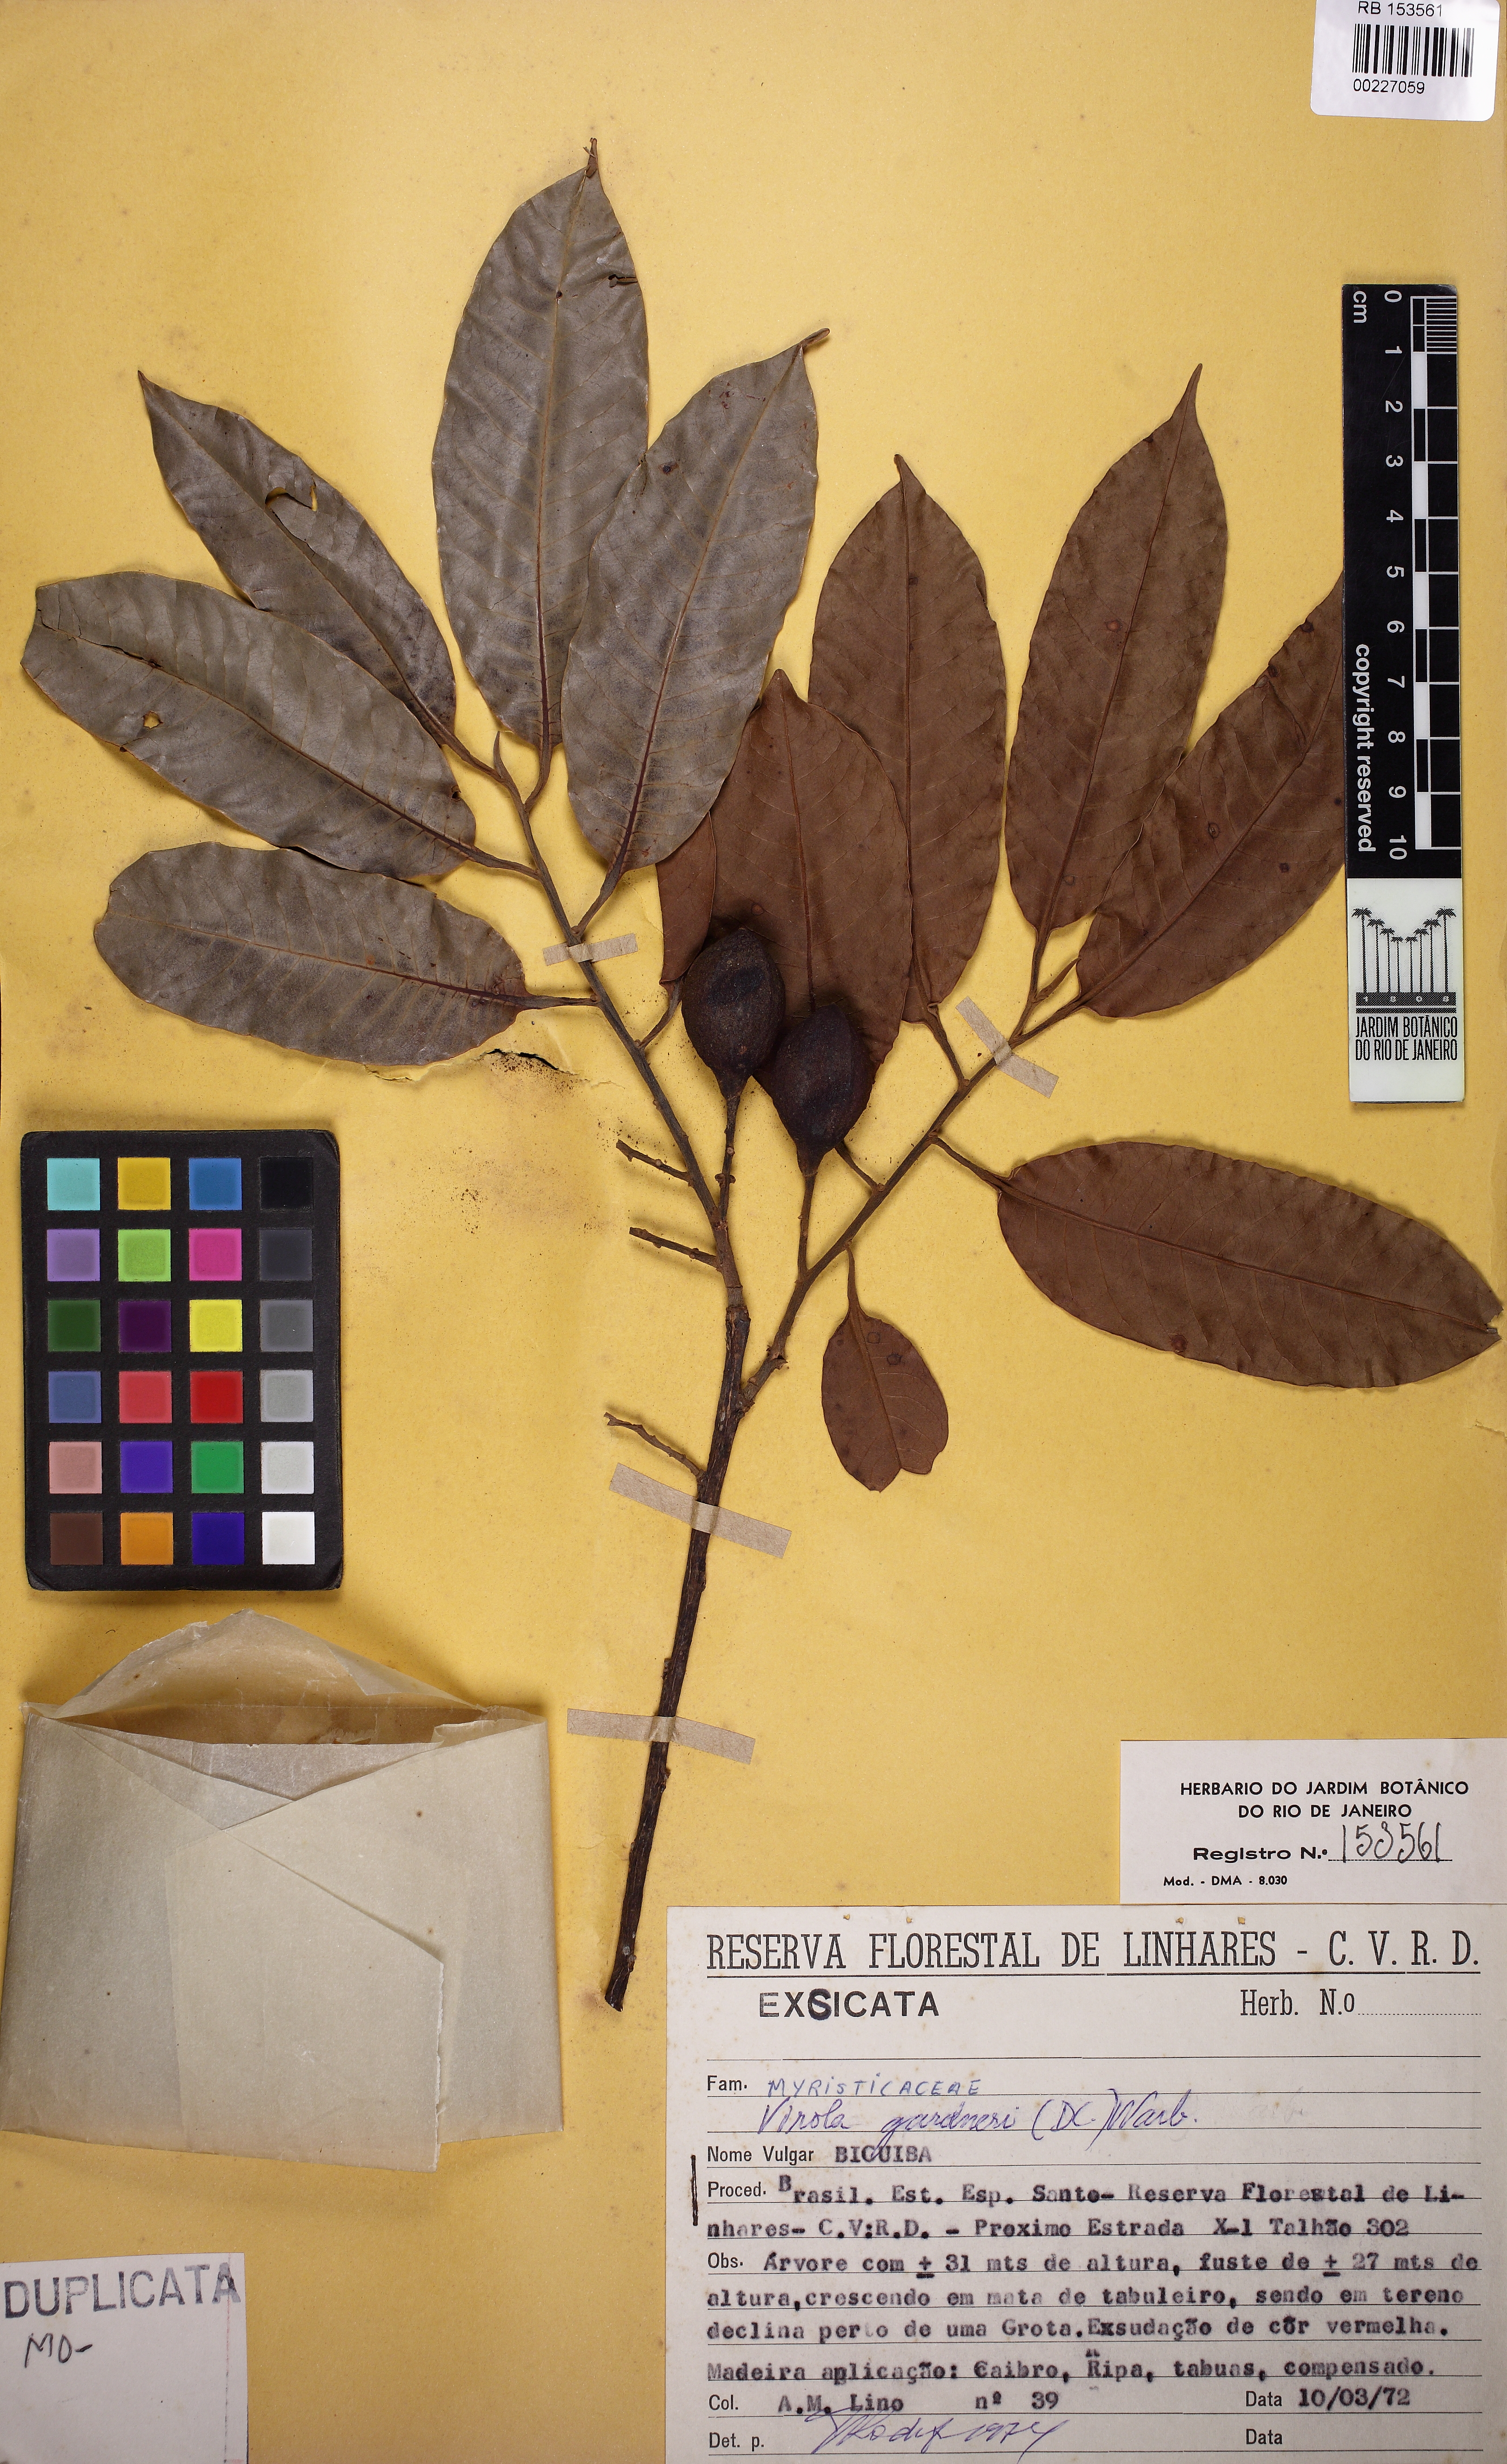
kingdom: Plantae
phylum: Tracheophyta
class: Magnoliopsida
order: Magnoliales
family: Myristicaceae
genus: Virola
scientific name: Virola gardneri
